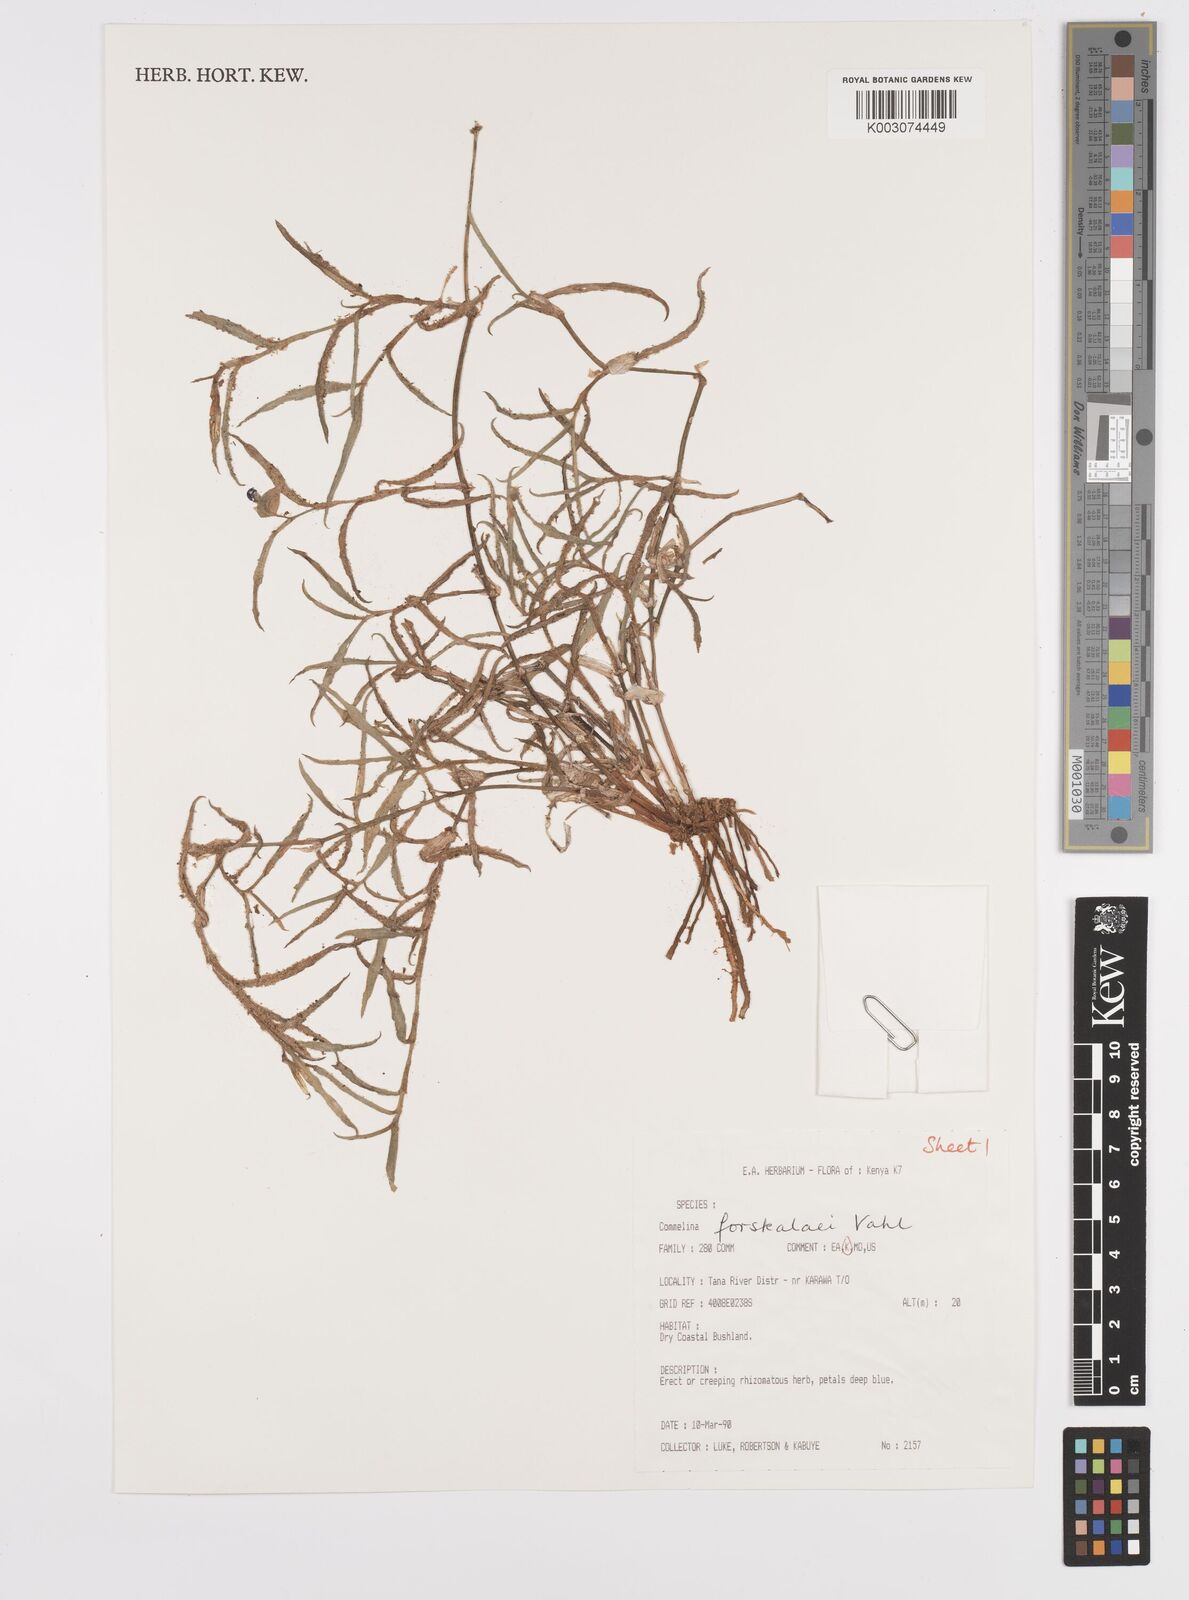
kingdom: Plantae
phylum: Tracheophyta
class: Liliopsida
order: Commelinales
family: Commelinaceae
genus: Commelina
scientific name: Commelina
